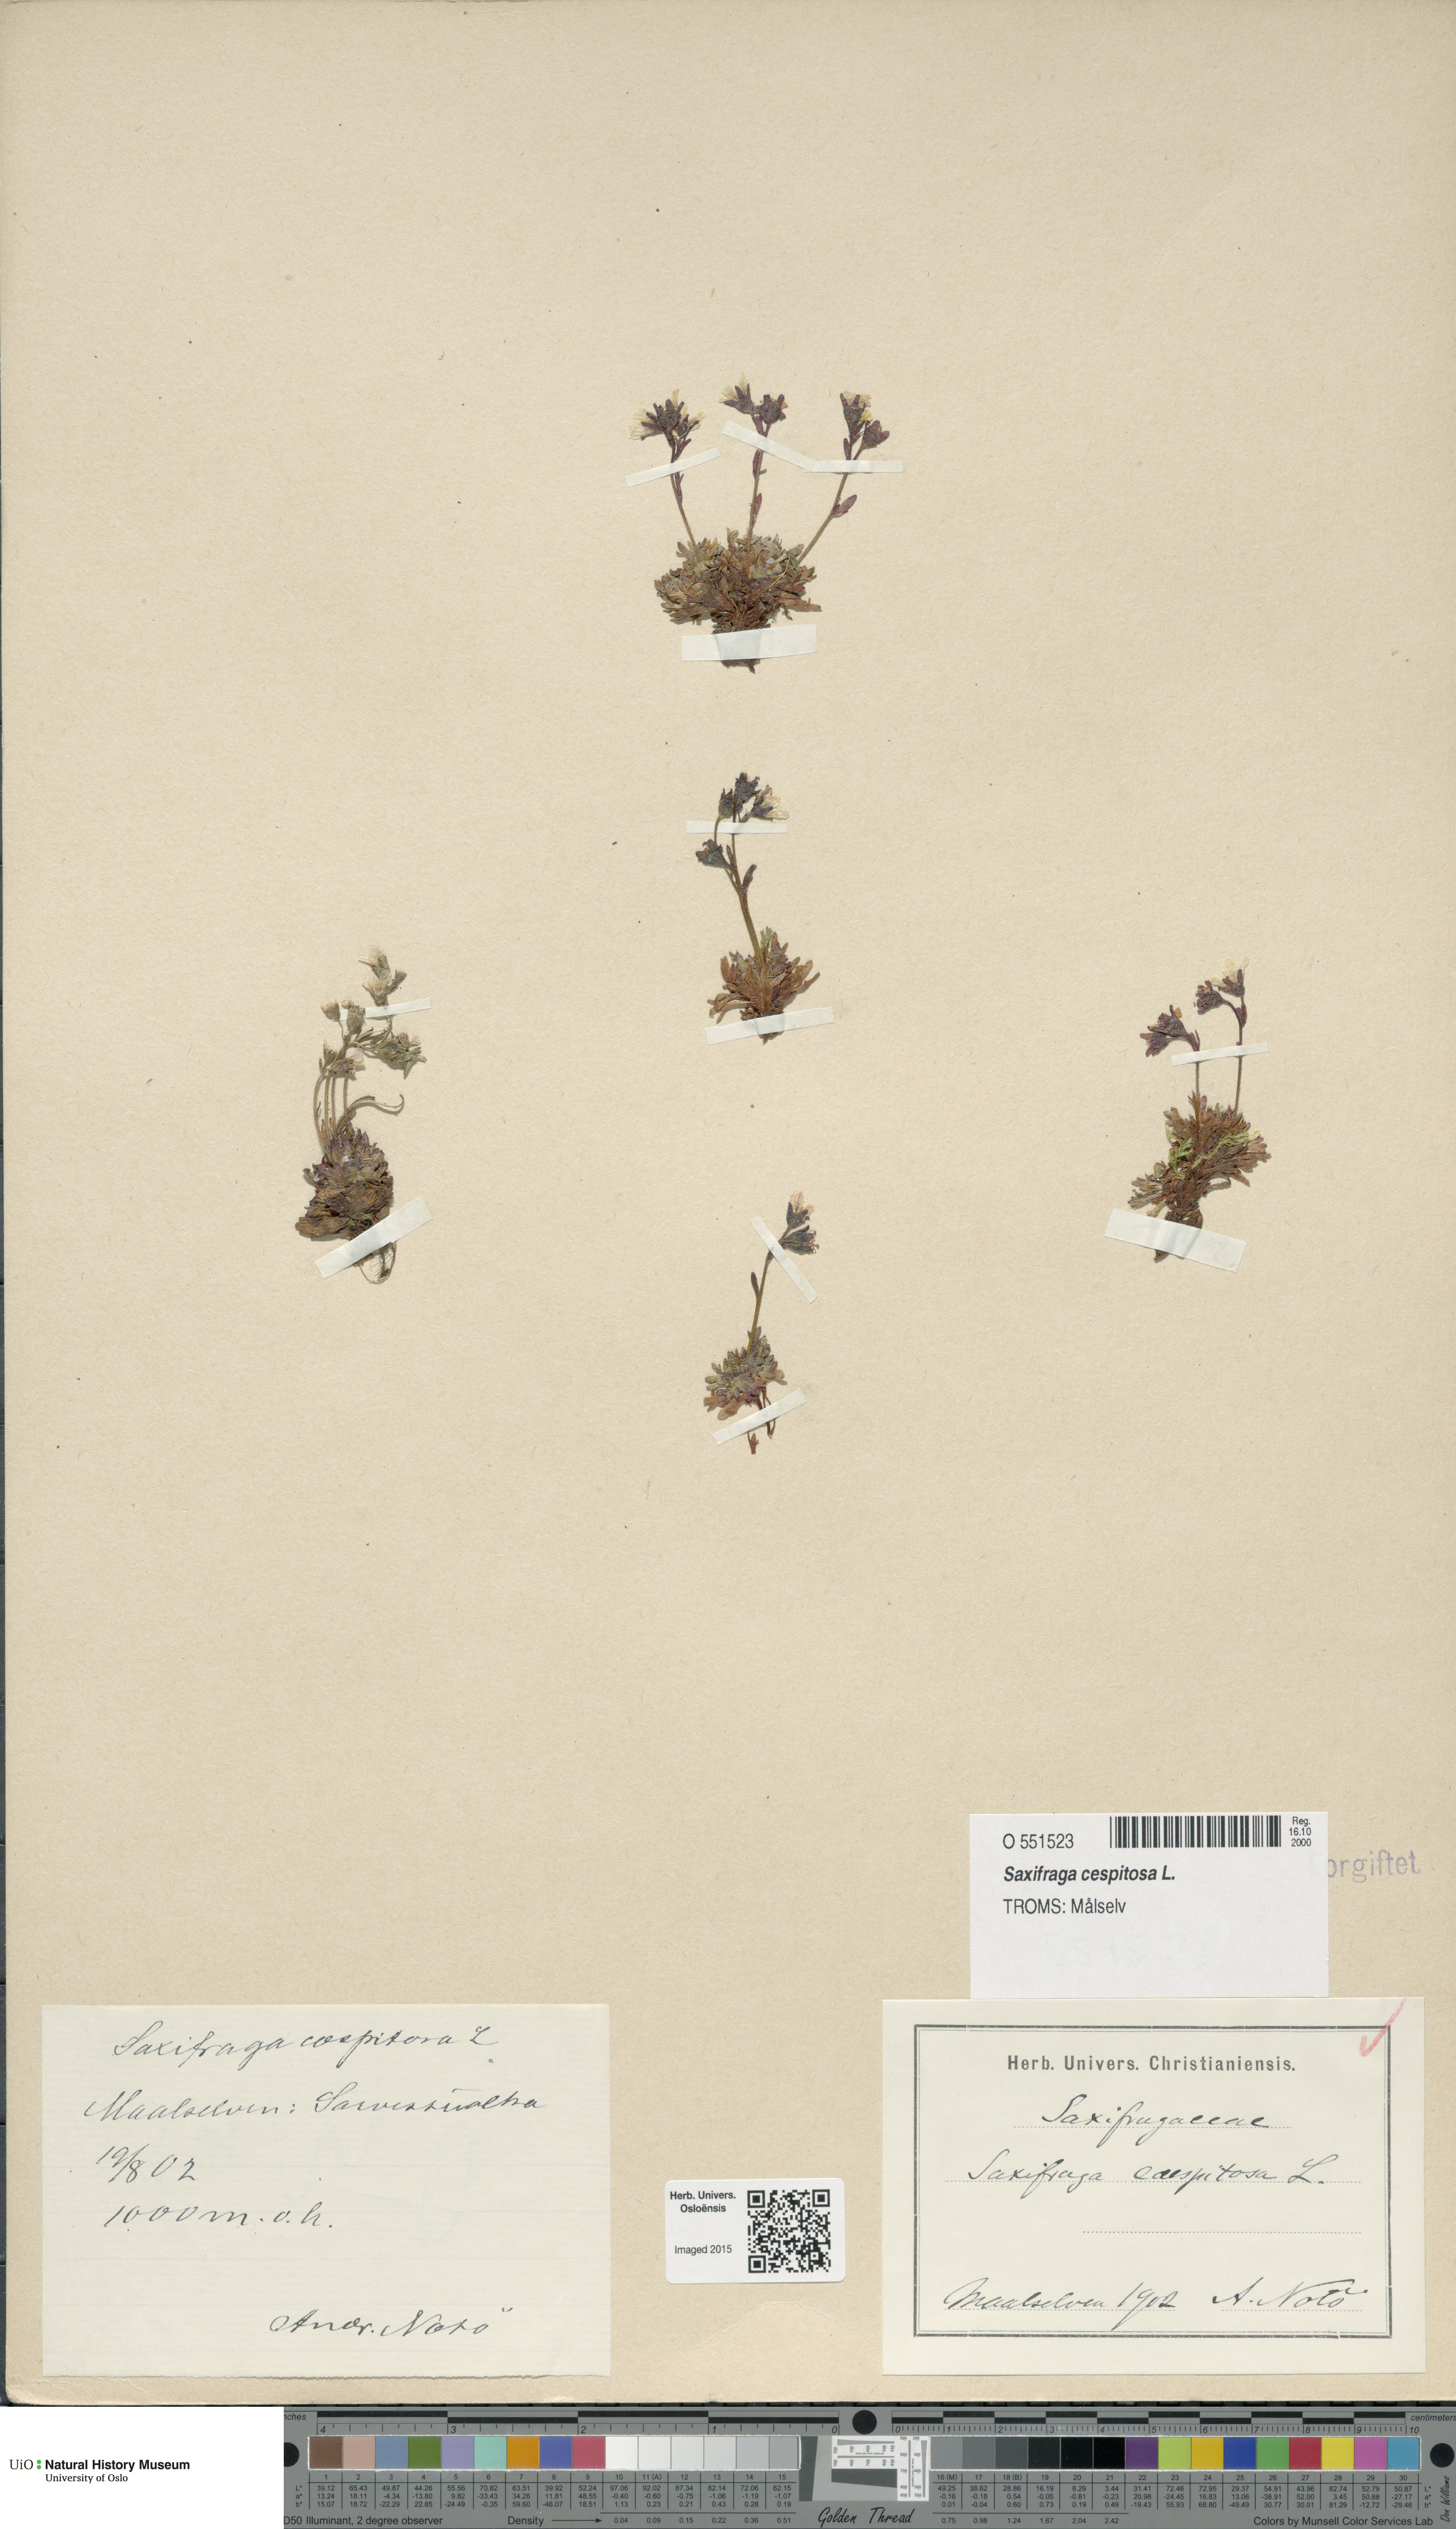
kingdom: Plantae
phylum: Tracheophyta
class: Magnoliopsida
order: Saxifragales
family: Saxifragaceae
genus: Saxifraga
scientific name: Saxifraga cespitosa
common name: Tufted saxifrage
